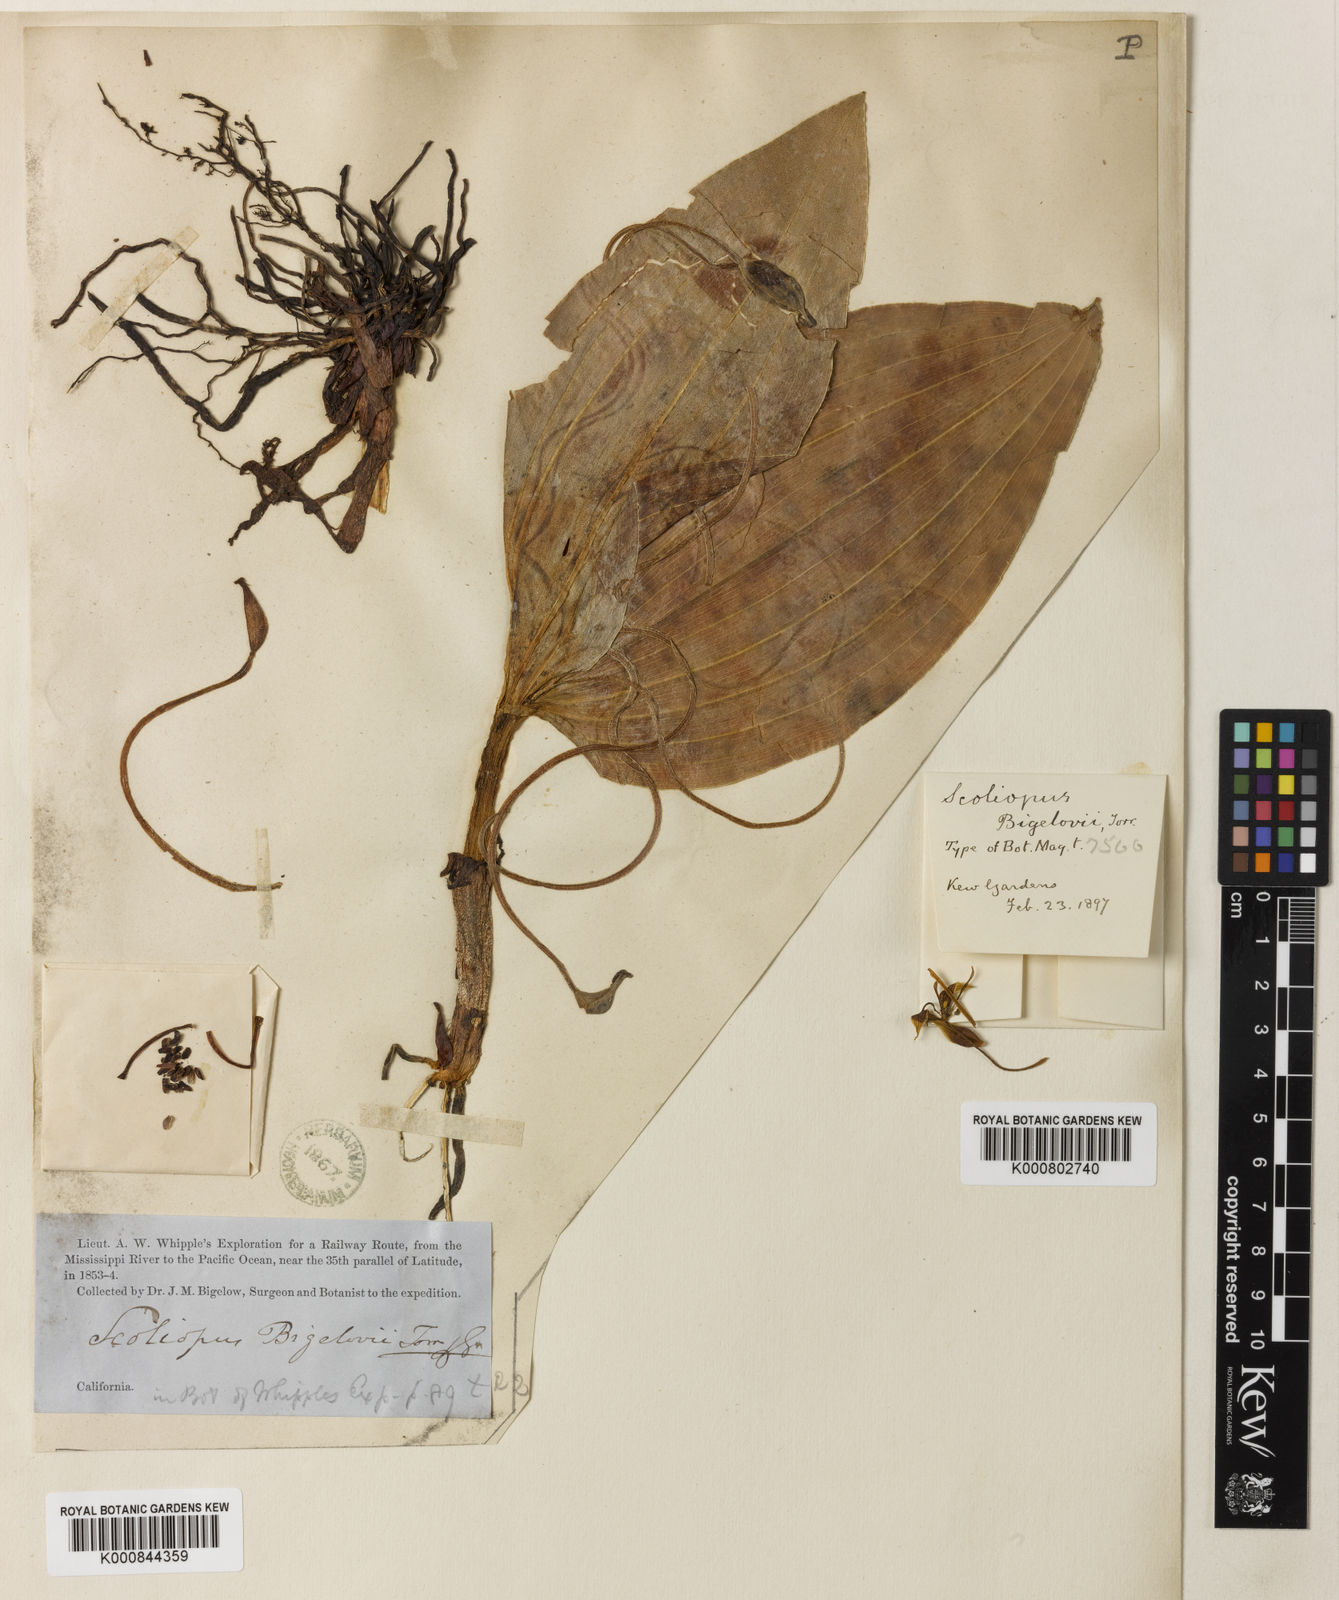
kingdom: Plantae
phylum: Tracheophyta
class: Liliopsida
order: Liliales
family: Liliaceae
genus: Scoliopus
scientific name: Scoliopus bigelovii
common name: Foetid adder's-tongue
